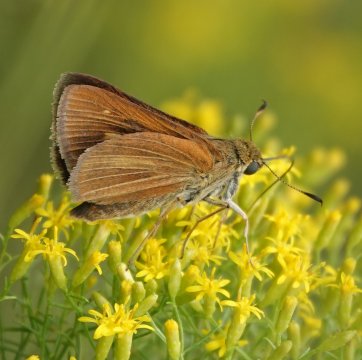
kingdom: Animalia
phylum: Arthropoda
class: Insecta
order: Lepidoptera
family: Hesperiidae
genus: Euphyes
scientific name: Euphyes dion
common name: Dion Skipper
